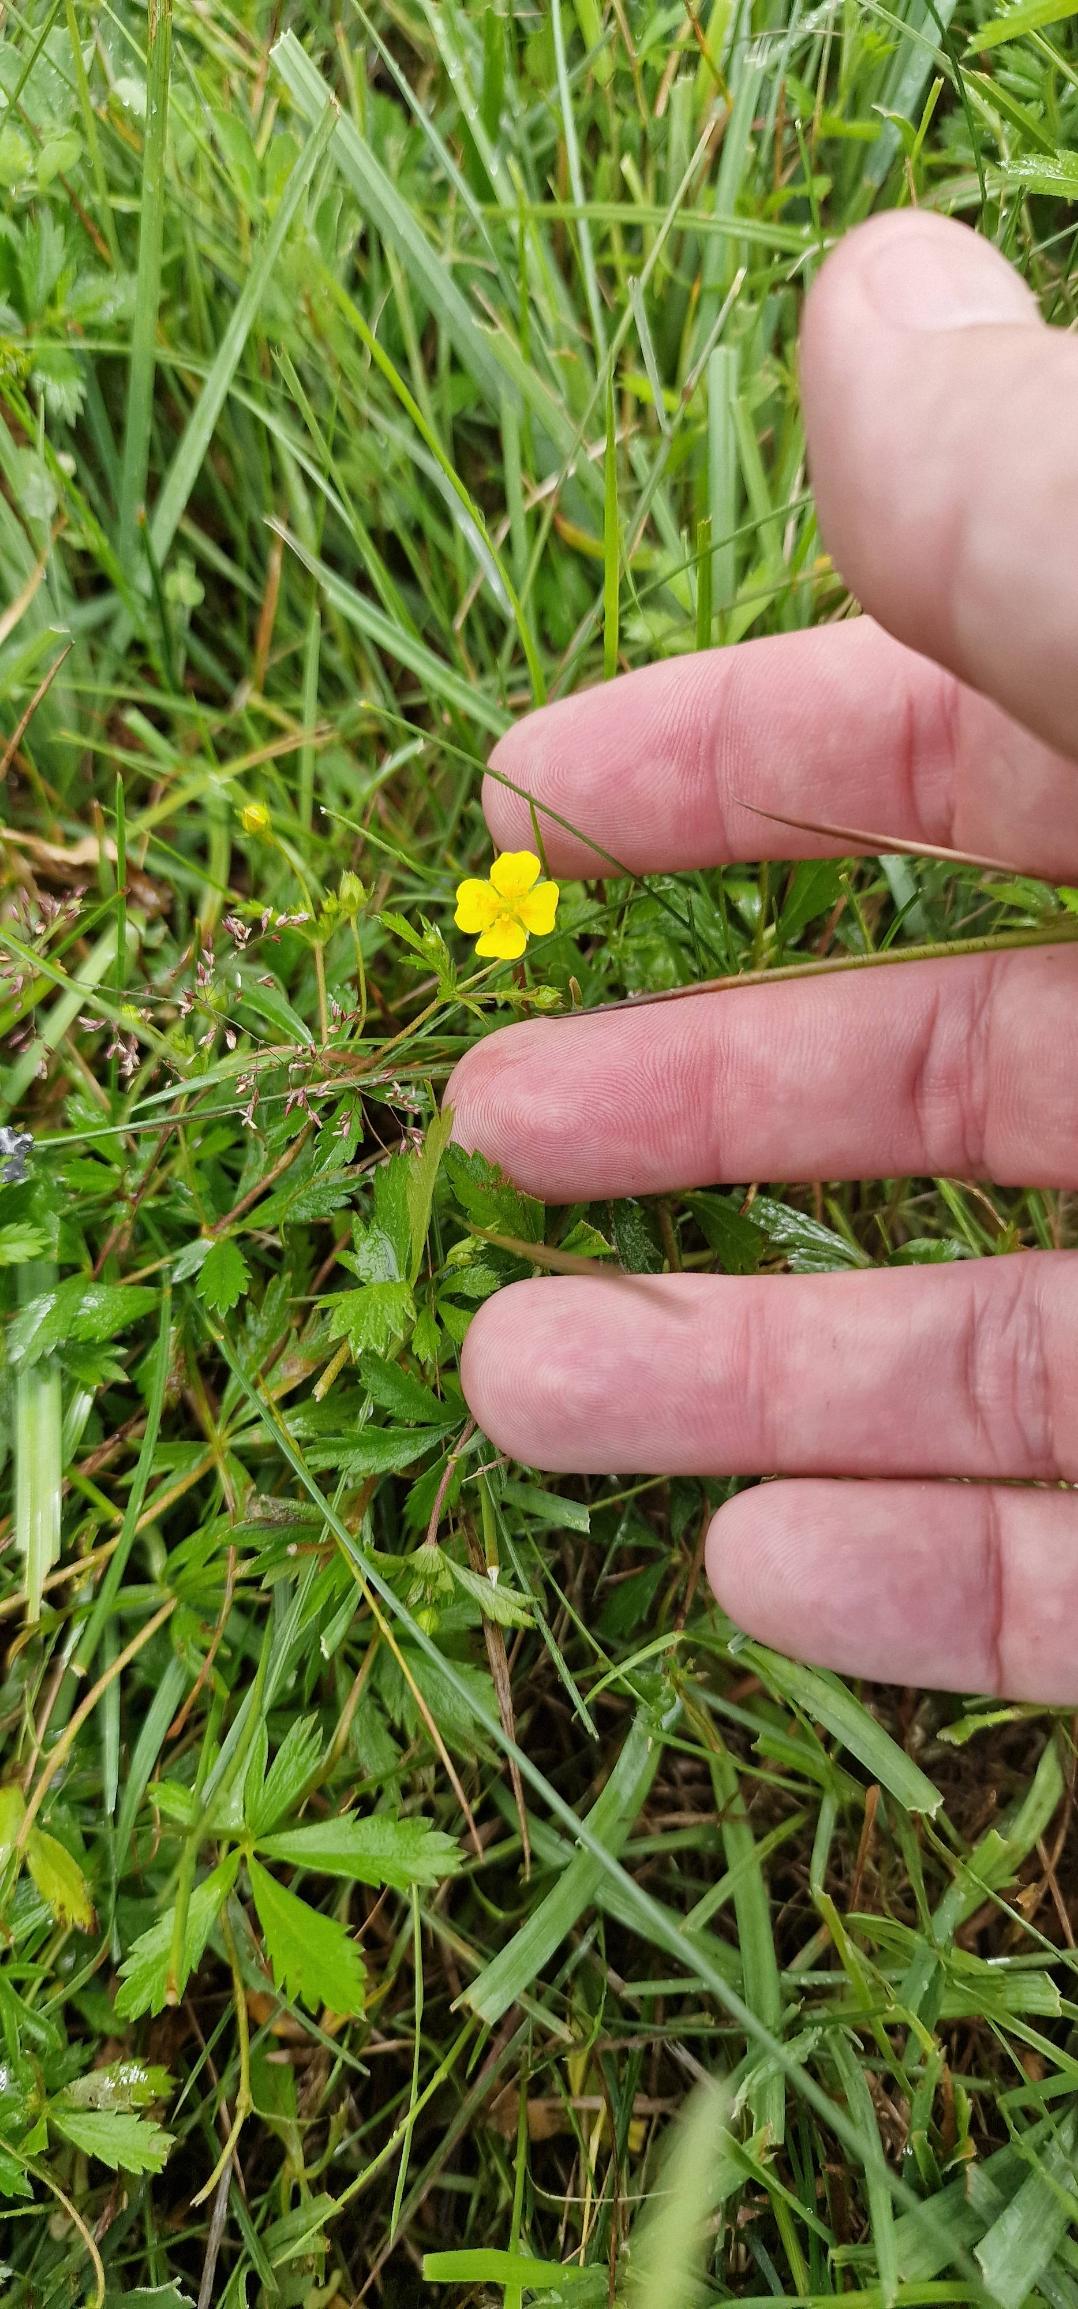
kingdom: Plantae
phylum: Tracheophyta
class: Magnoliopsida
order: Rosales
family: Rosaceae
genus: Potentilla
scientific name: Potentilla erecta
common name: Tormentil
